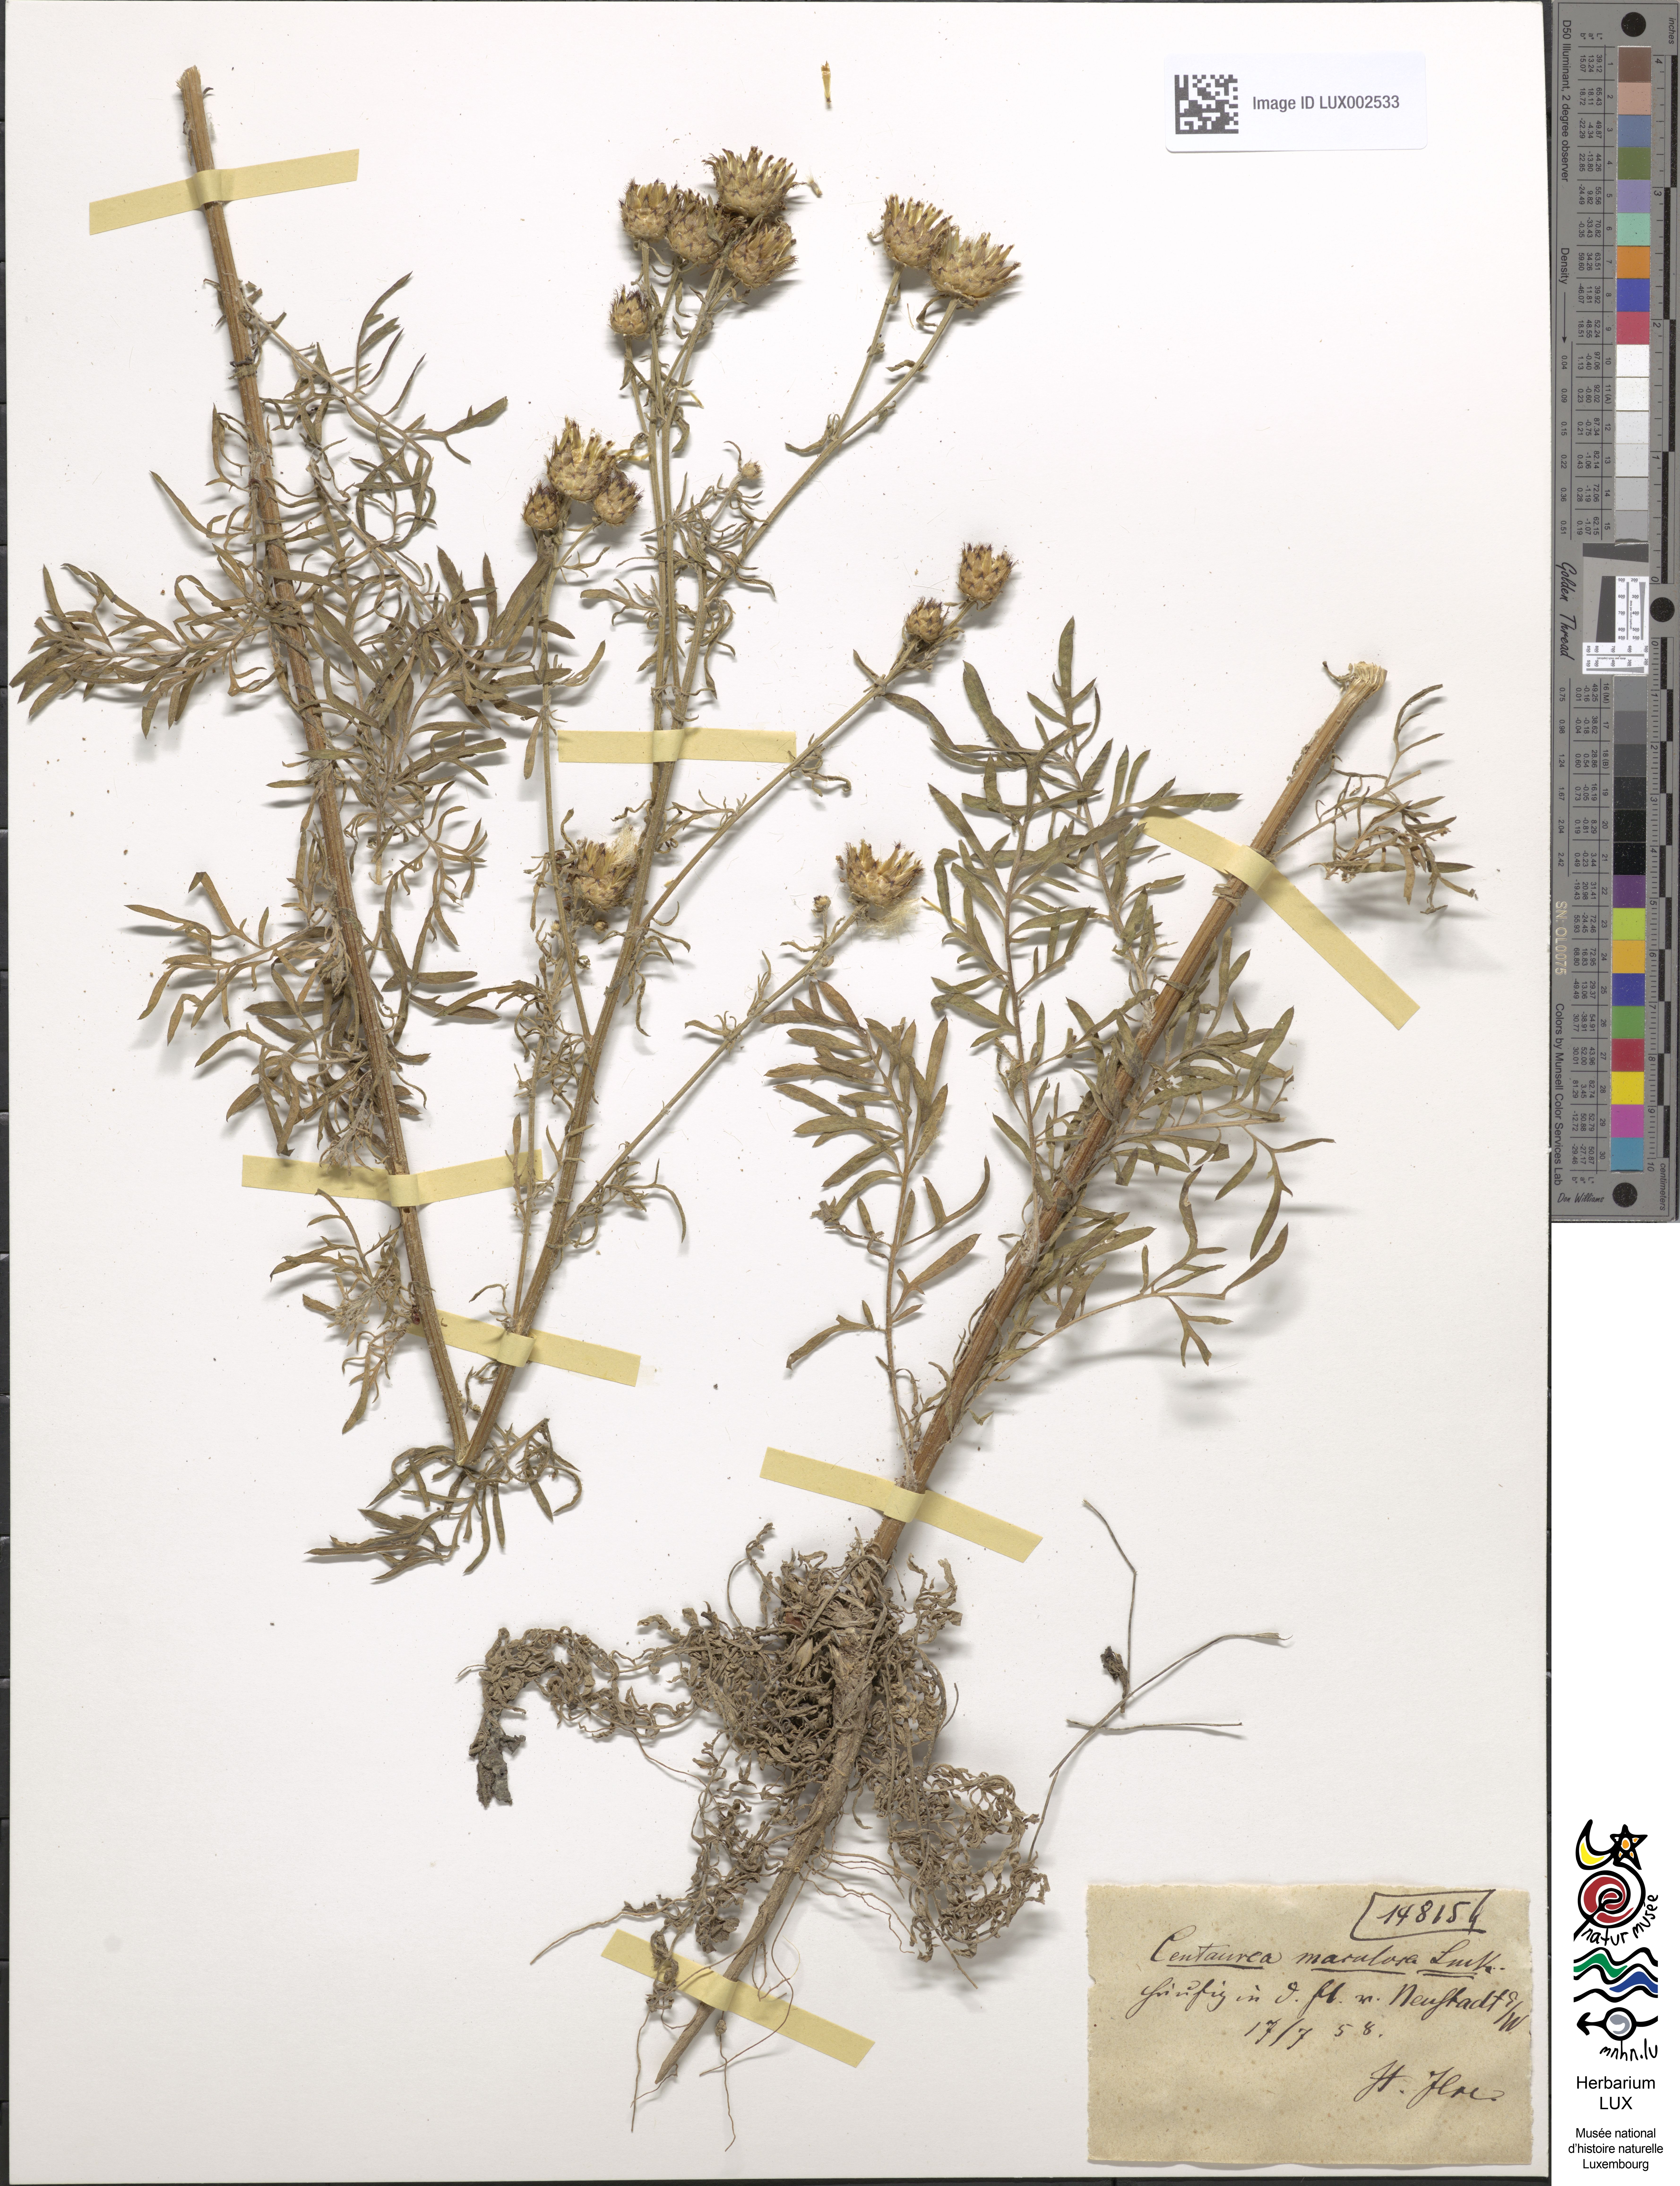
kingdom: Plantae
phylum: Tracheophyta
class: Magnoliopsida
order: Asterales
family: Asteraceae
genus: Centaurea
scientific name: Centaurea stoebe
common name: Spotted knapweed
